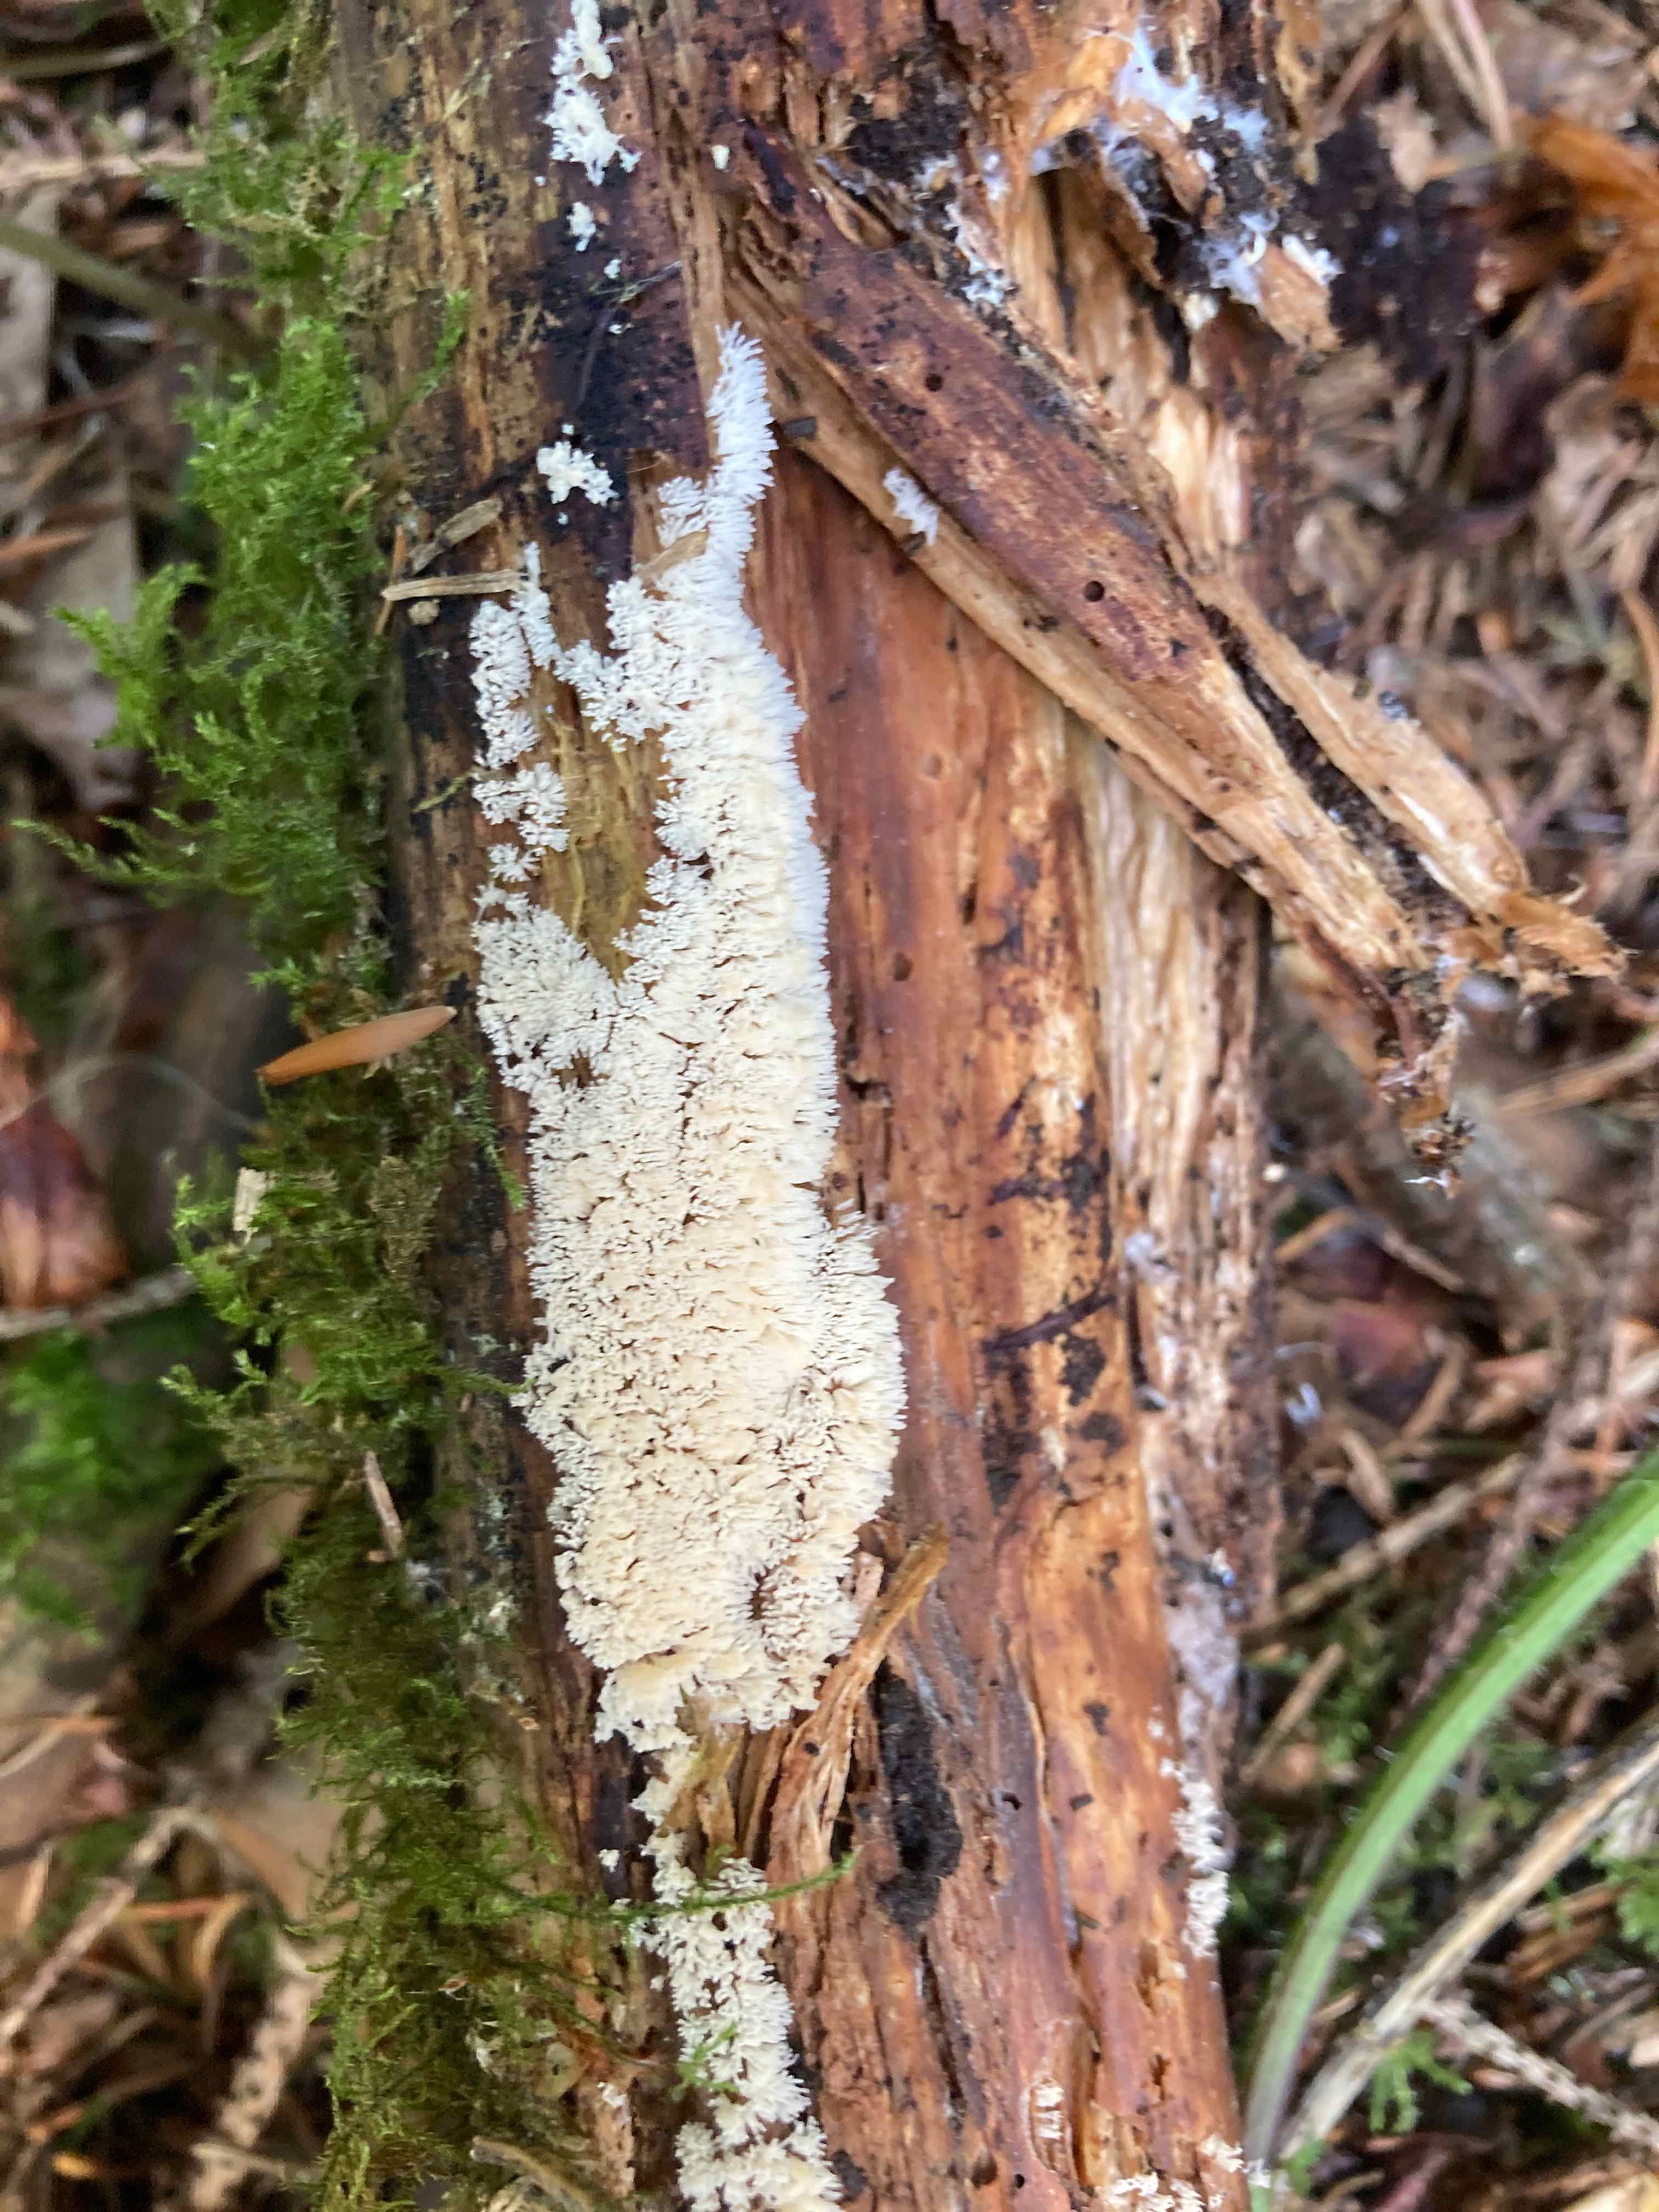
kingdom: Protozoa
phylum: Mycetozoa
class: Protosteliomycetes
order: Ceratiomyxales
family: Ceratiomyxaceae
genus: Ceratiomyxa
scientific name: Ceratiomyxa fruticulosa
